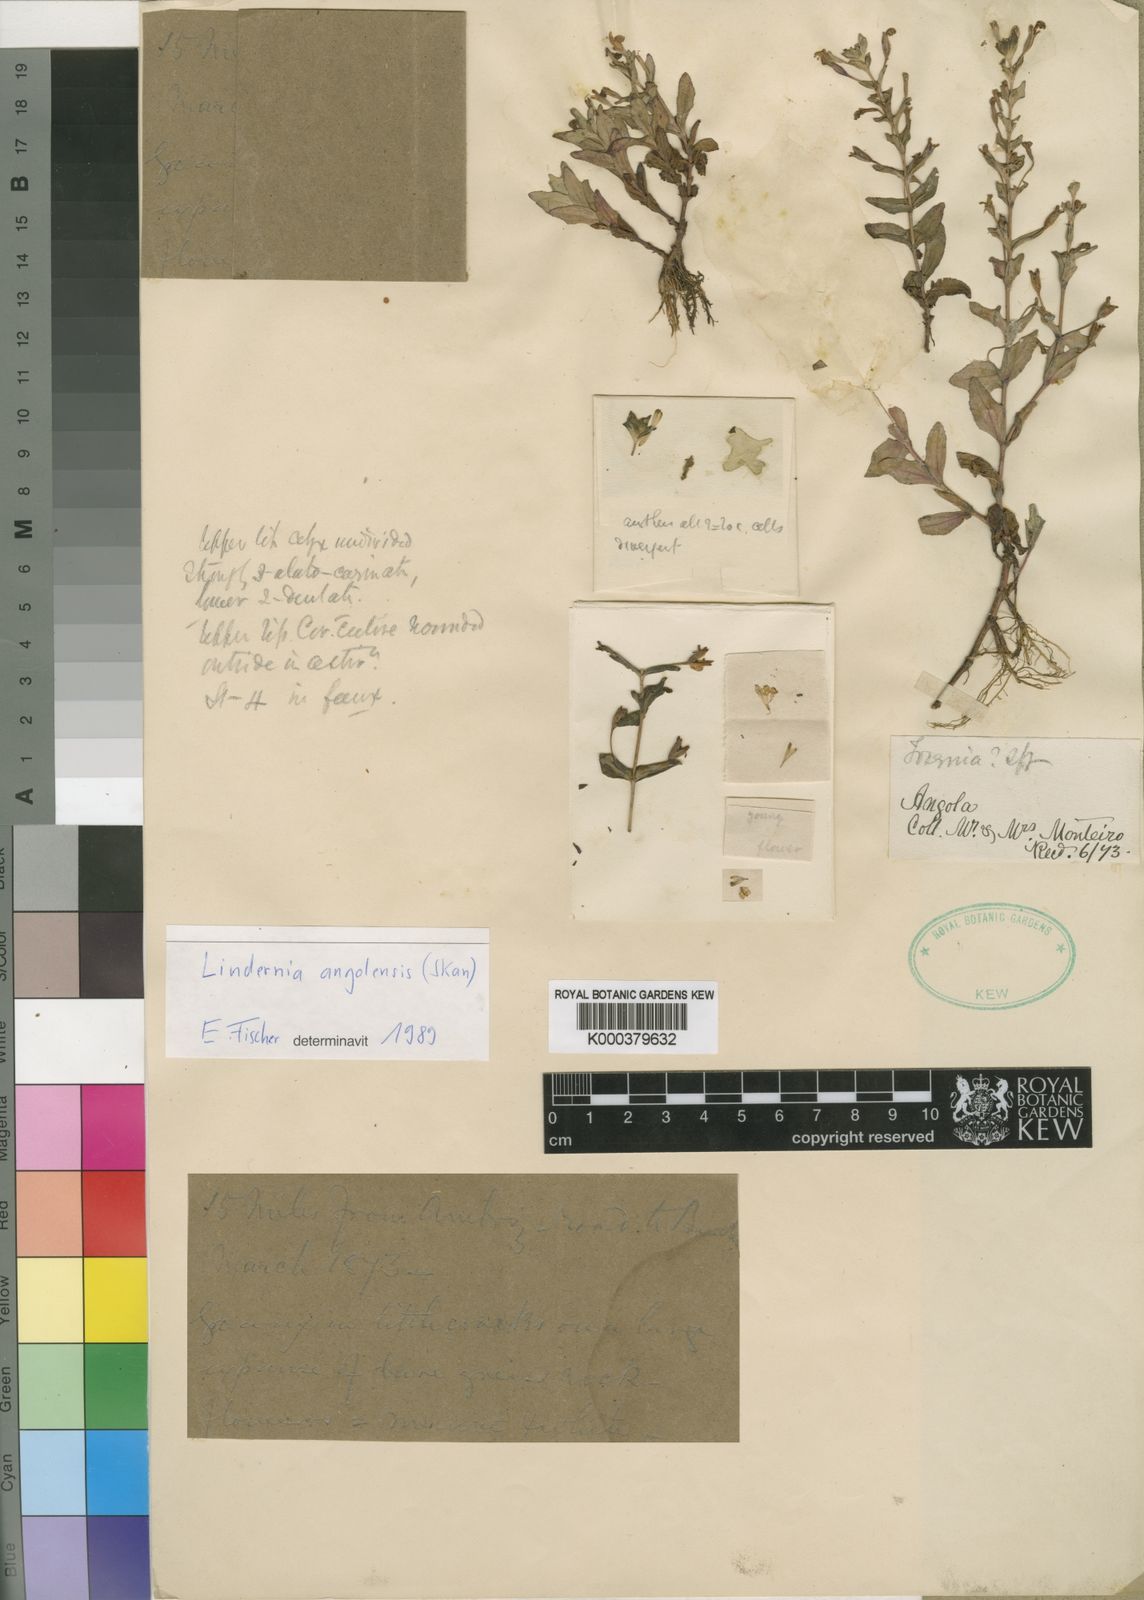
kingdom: Plantae
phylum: Tracheophyta
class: Magnoliopsida
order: Lamiales
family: Linderniaceae
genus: Craterostigma
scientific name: Craterostigma angolense
